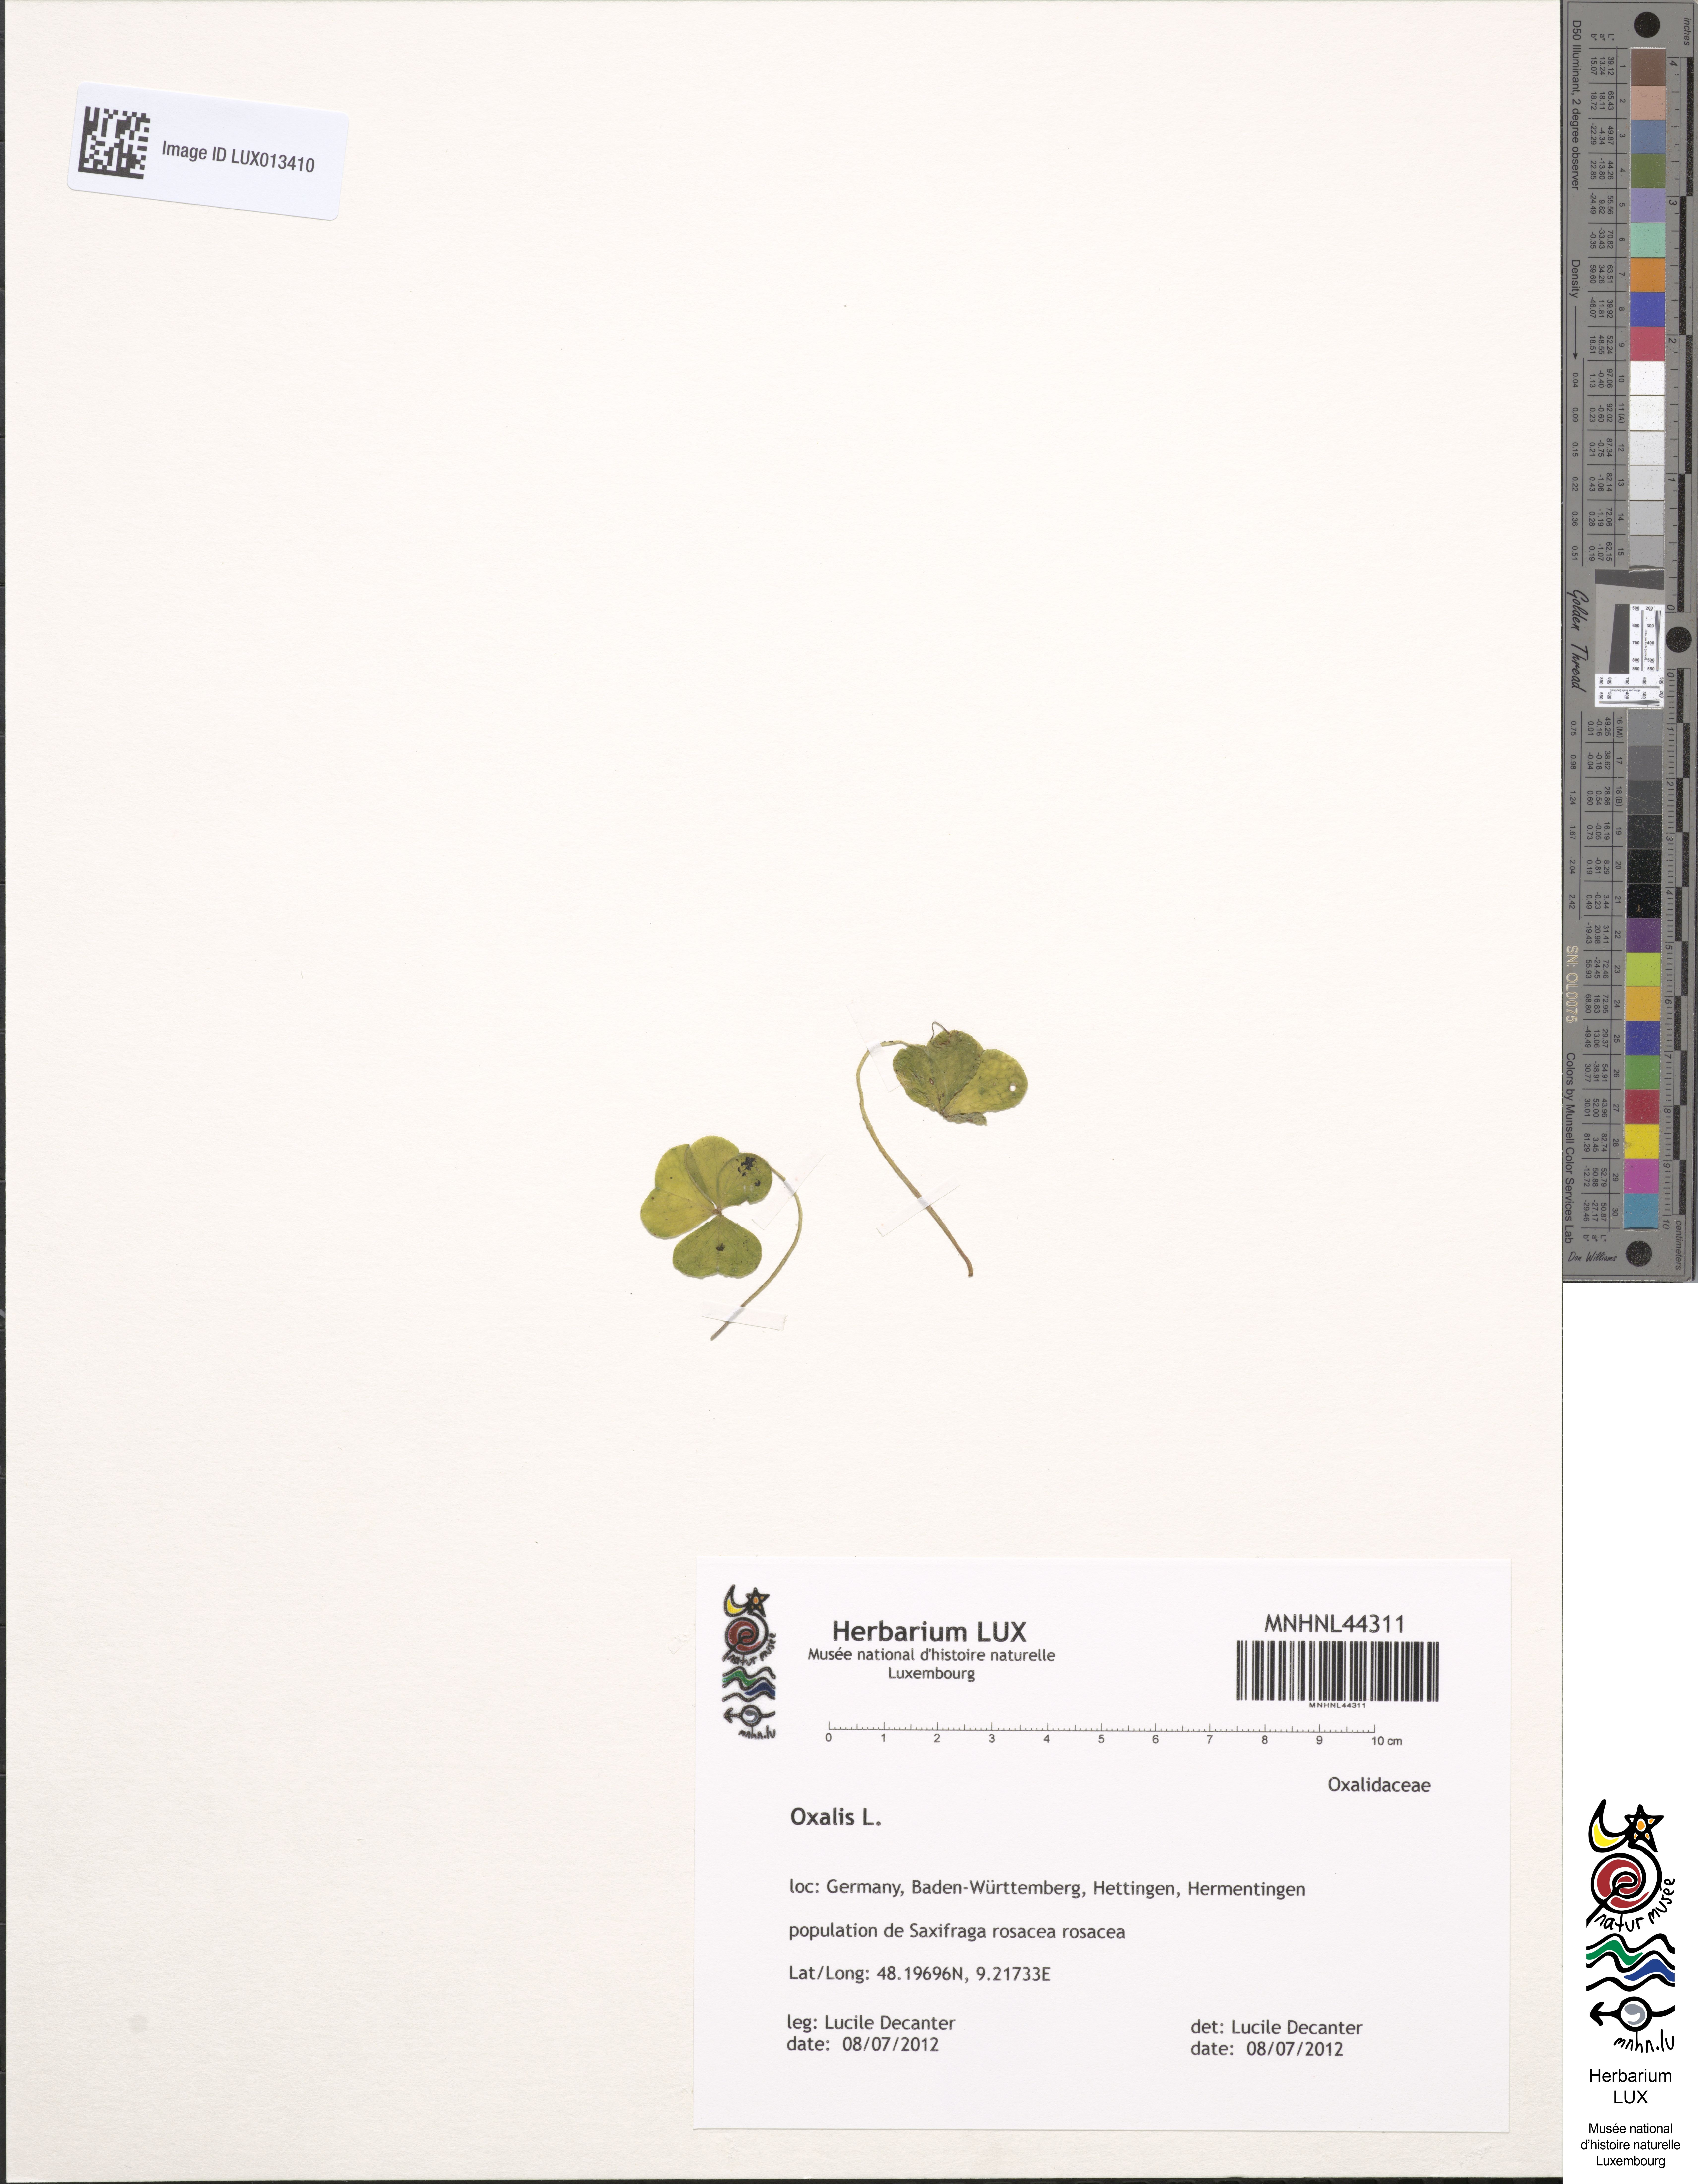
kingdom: Plantae
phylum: Tracheophyta
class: Magnoliopsida
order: Oxalidales
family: Oxalidaceae
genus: Oxalis
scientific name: Oxalis
